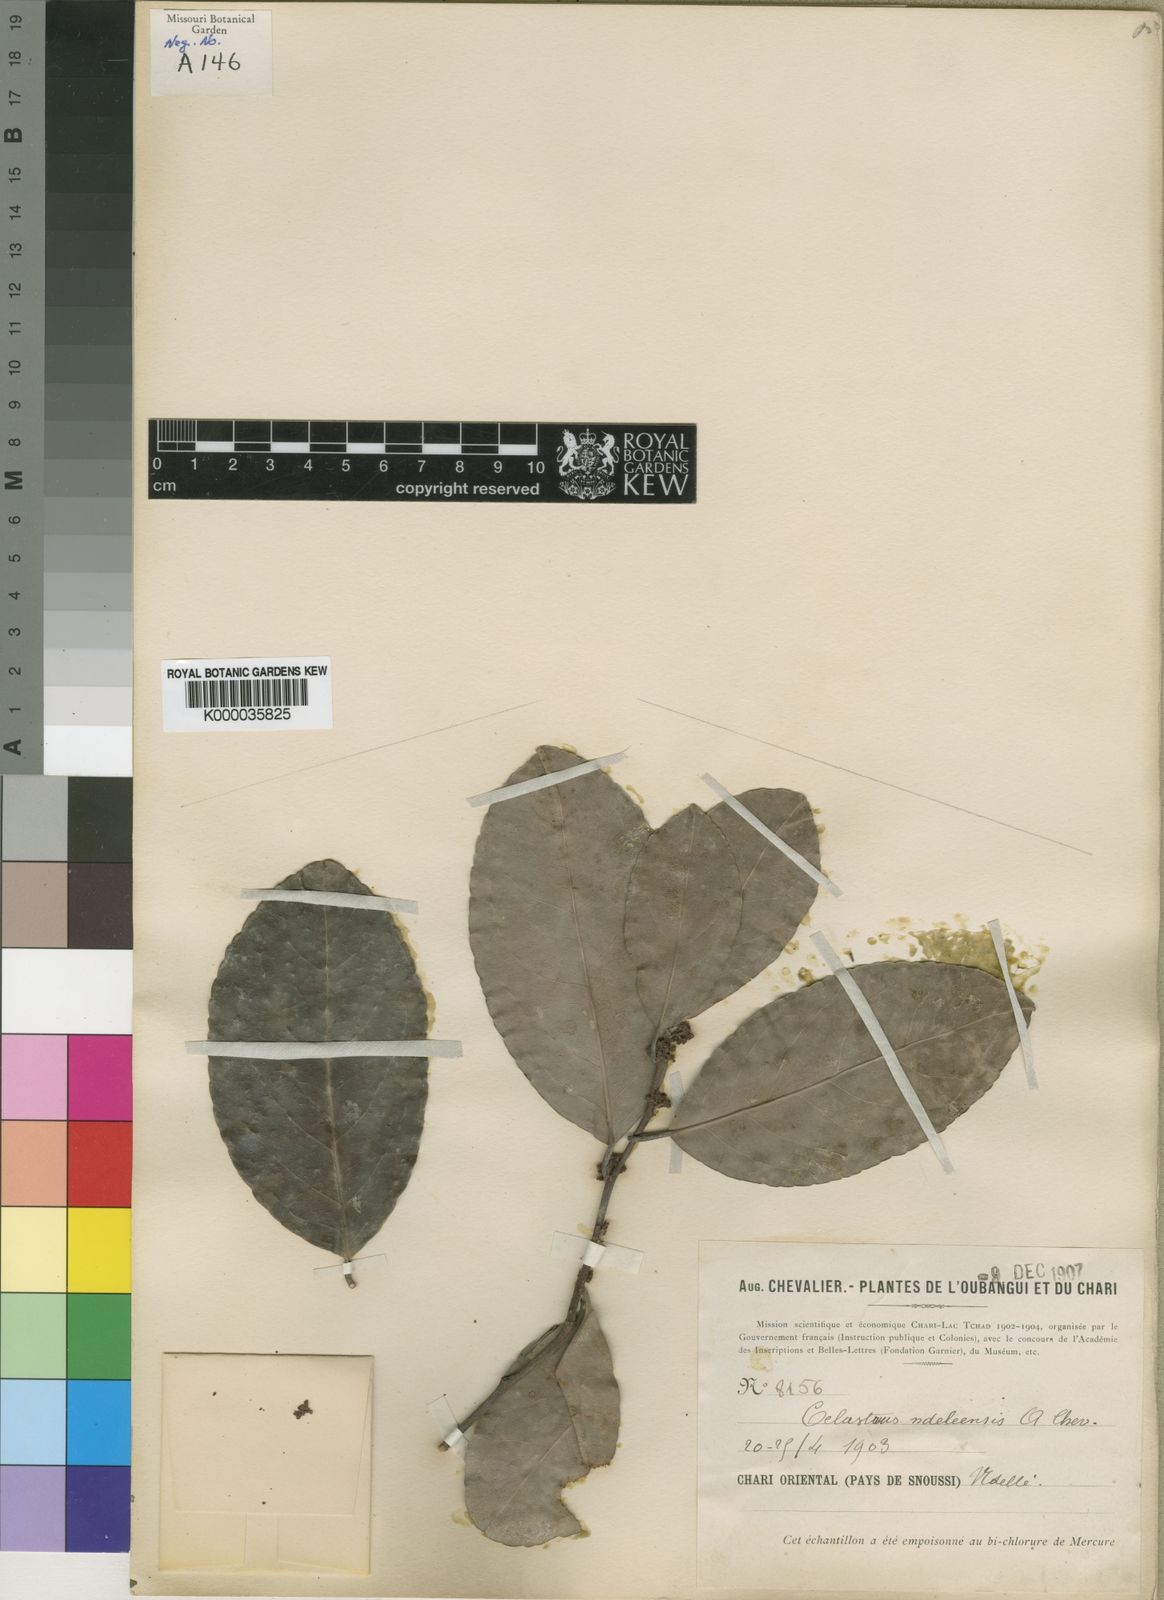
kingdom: Plantae
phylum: Tracheophyta
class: Magnoliopsida
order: Celastrales
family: Celastraceae
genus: Gymnosporia
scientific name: Gymnosporia buchananii
